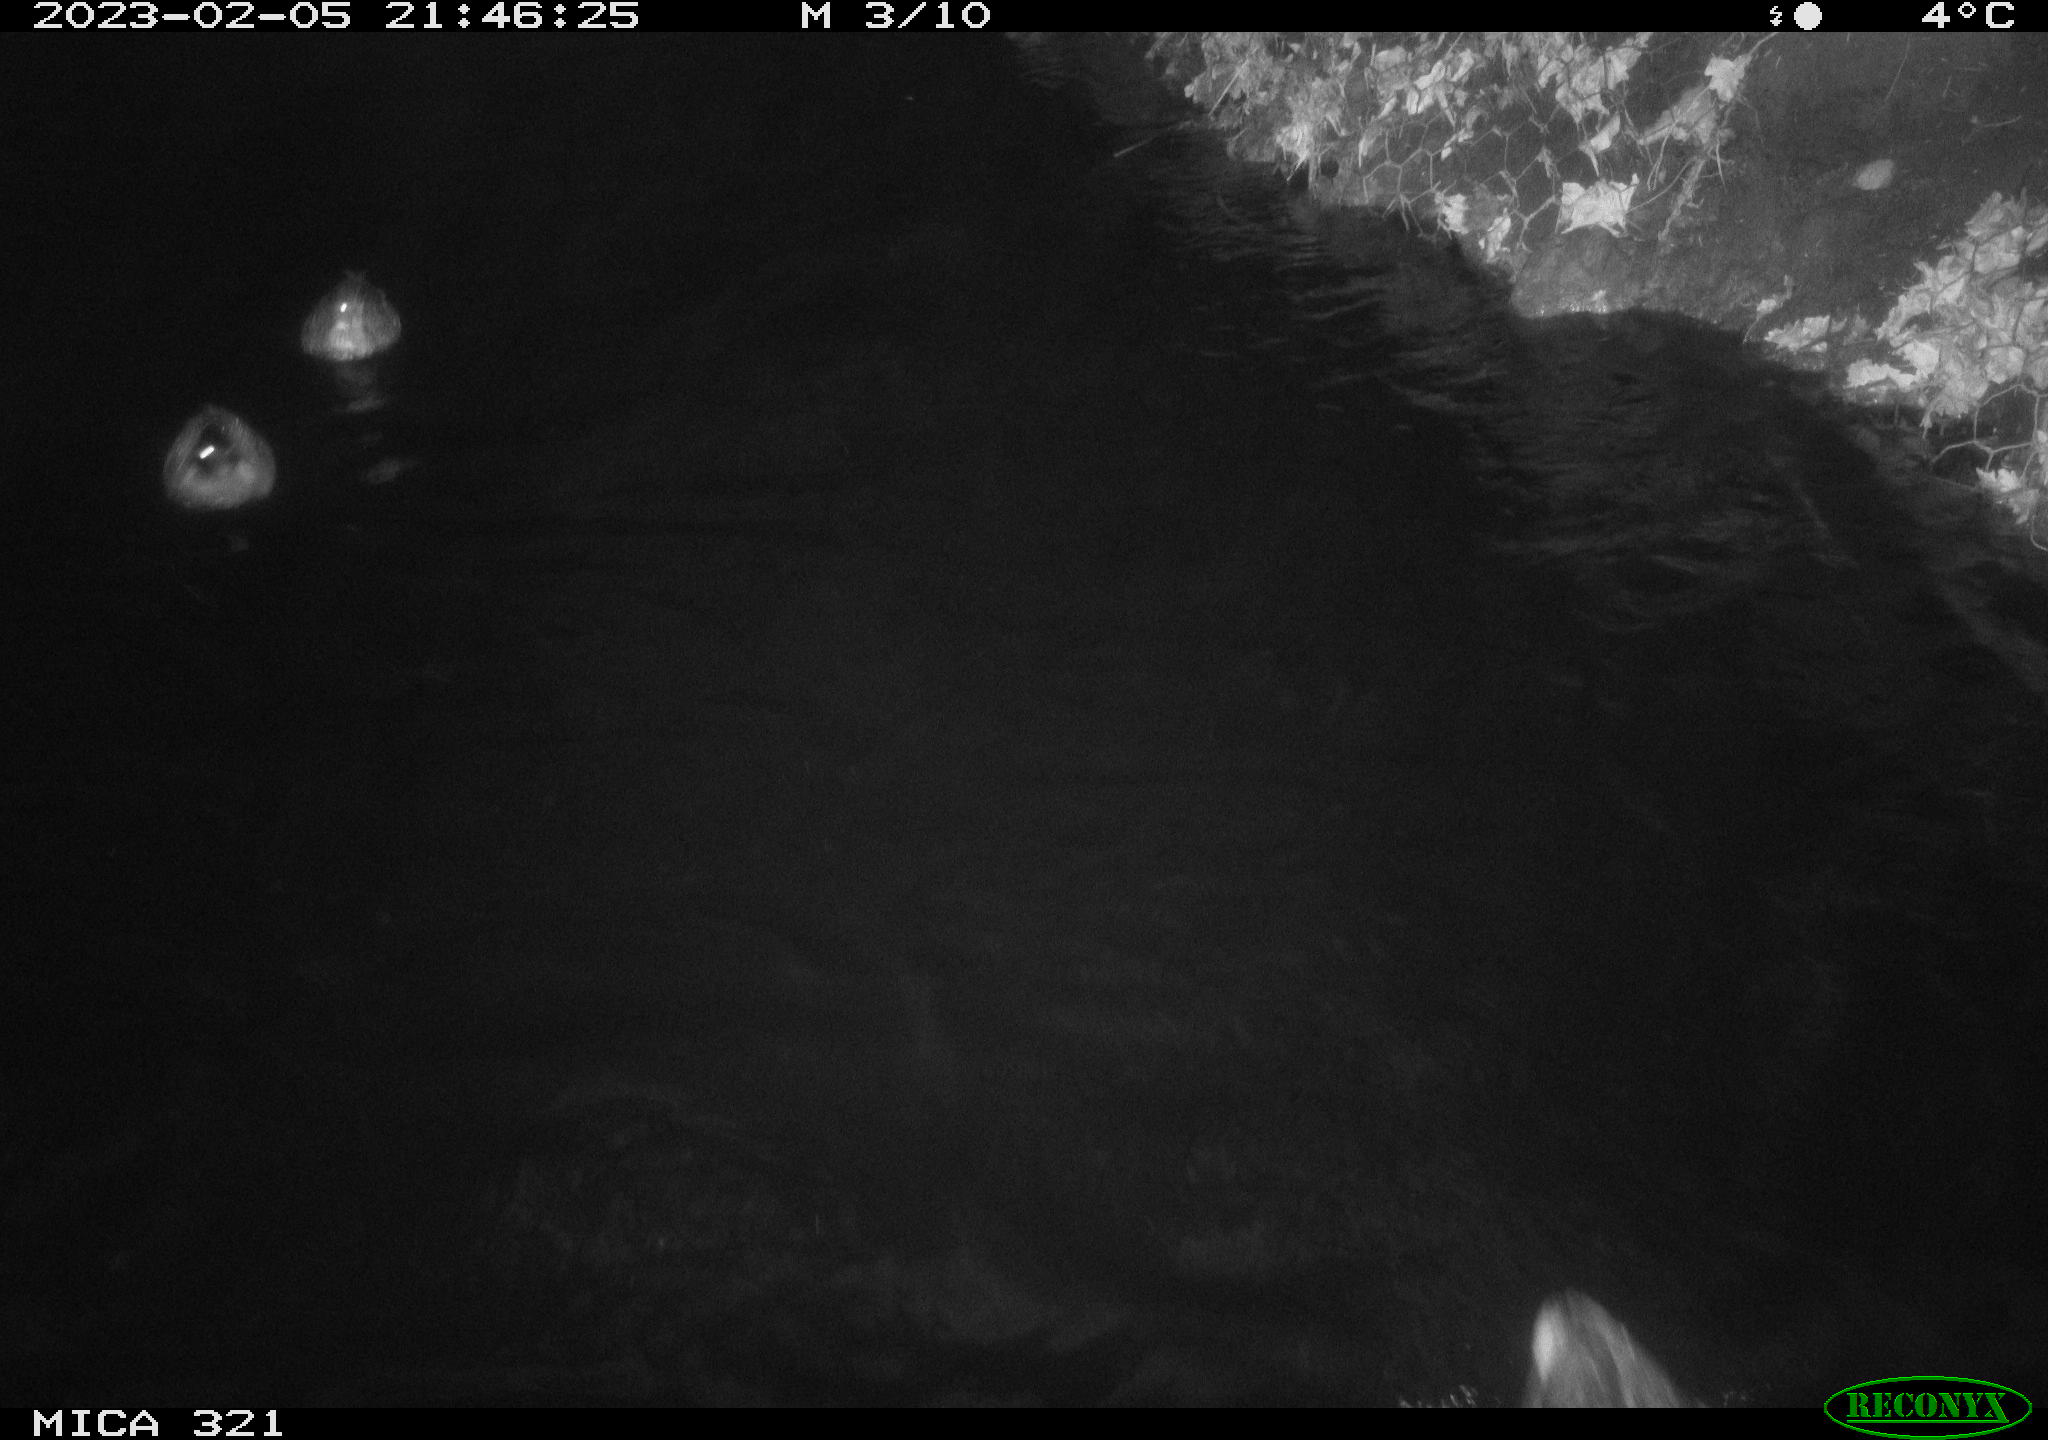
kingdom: Animalia
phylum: Chordata
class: Mammalia
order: Rodentia
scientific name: Rodentia
